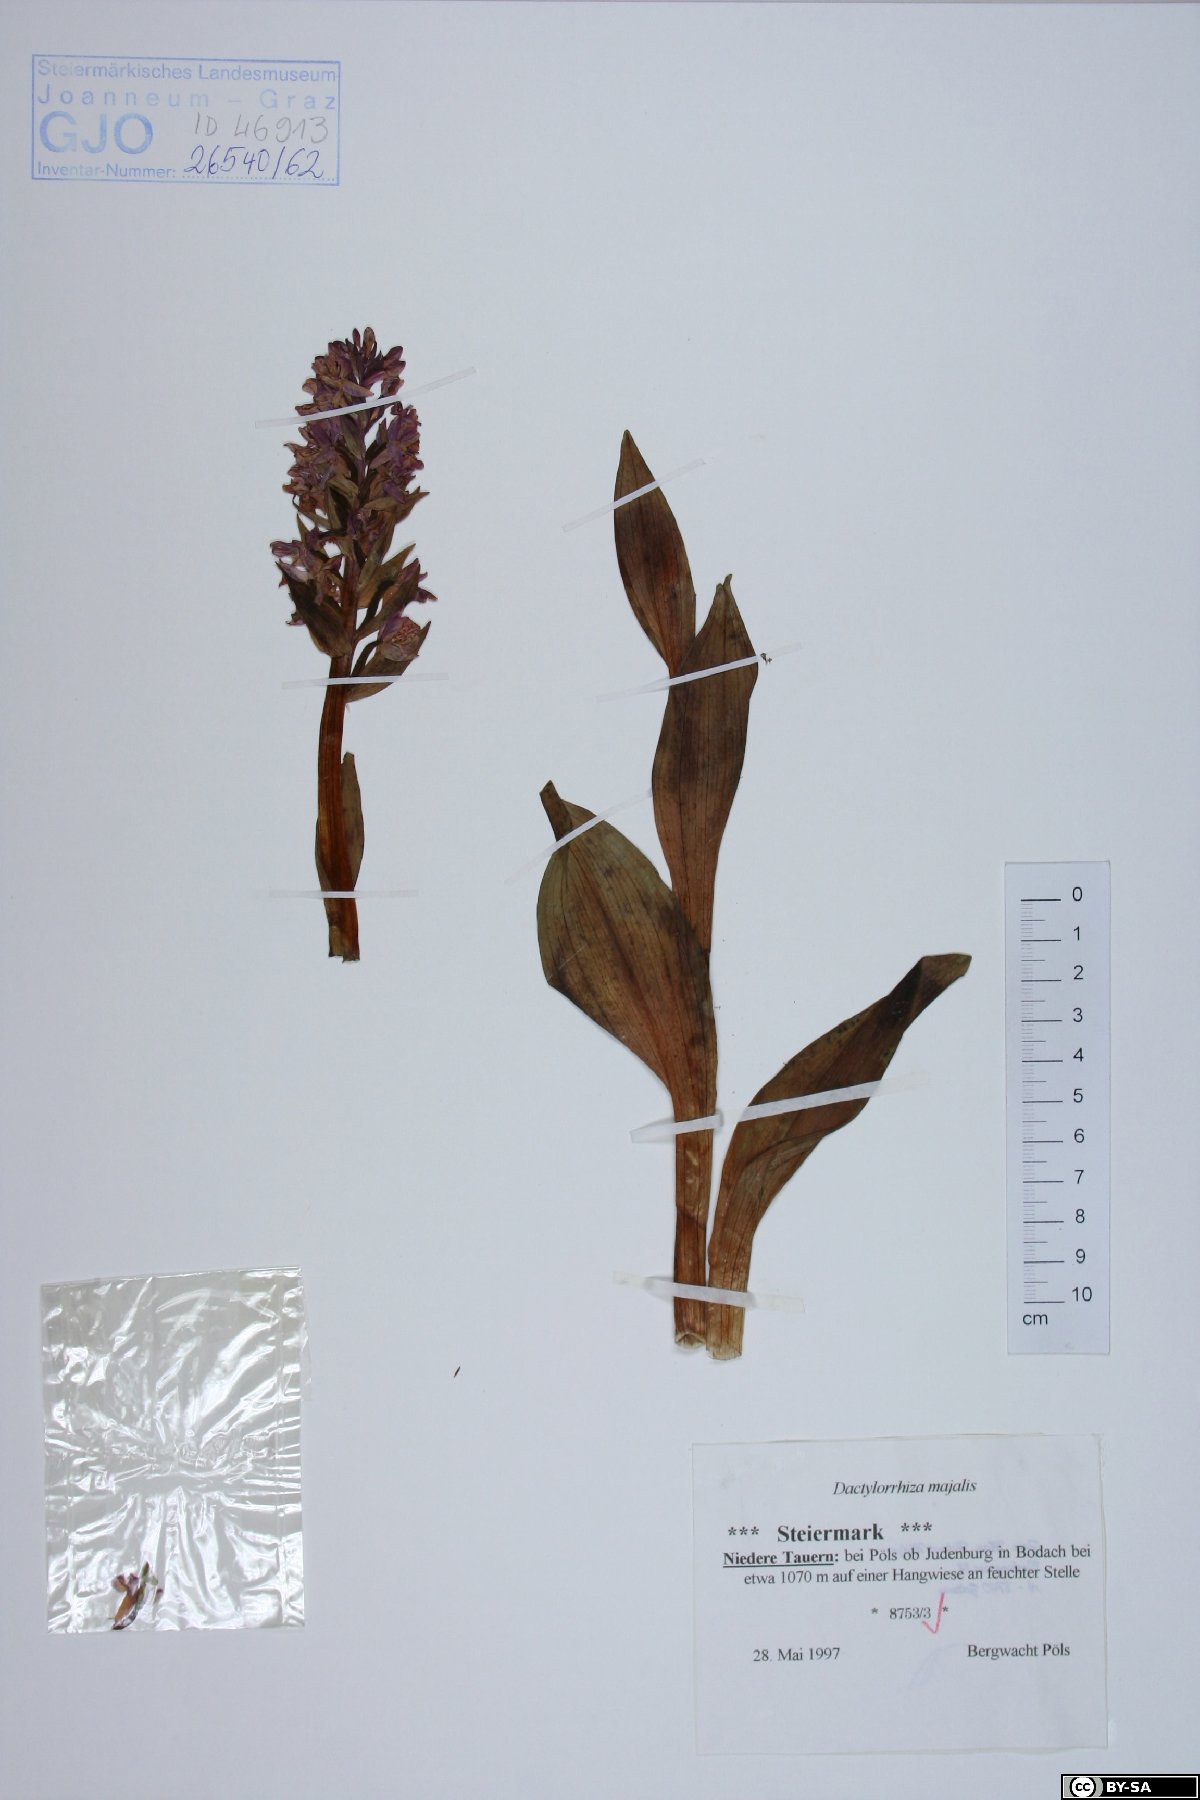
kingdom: Plantae
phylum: Tracheophyta
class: Liliopsida
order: Asparagales
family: Orchidaceae
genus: Dactylorhiza
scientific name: Dactylorhiza majalis
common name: Marsh orchid
